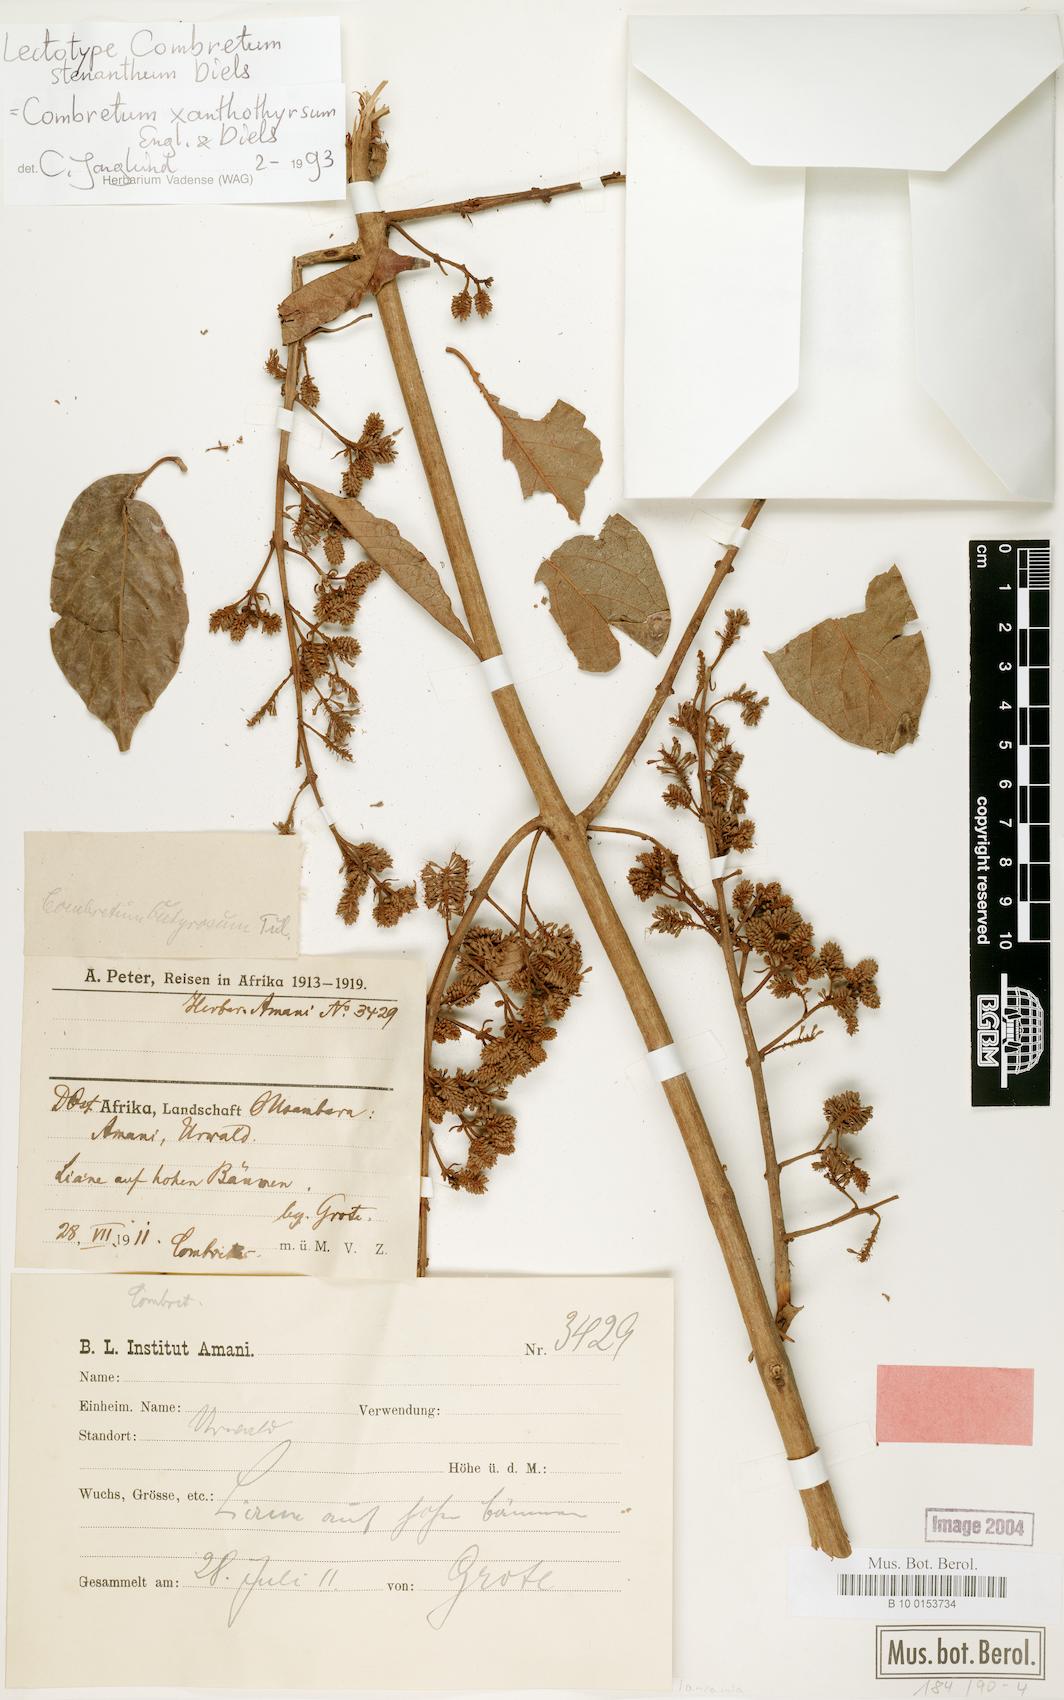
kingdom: Plantae
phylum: Tracheophyta
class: Magnoliopsida
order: Myrtales
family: Combretaceae
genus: Combretum
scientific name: Combretum xanthothyrsum
